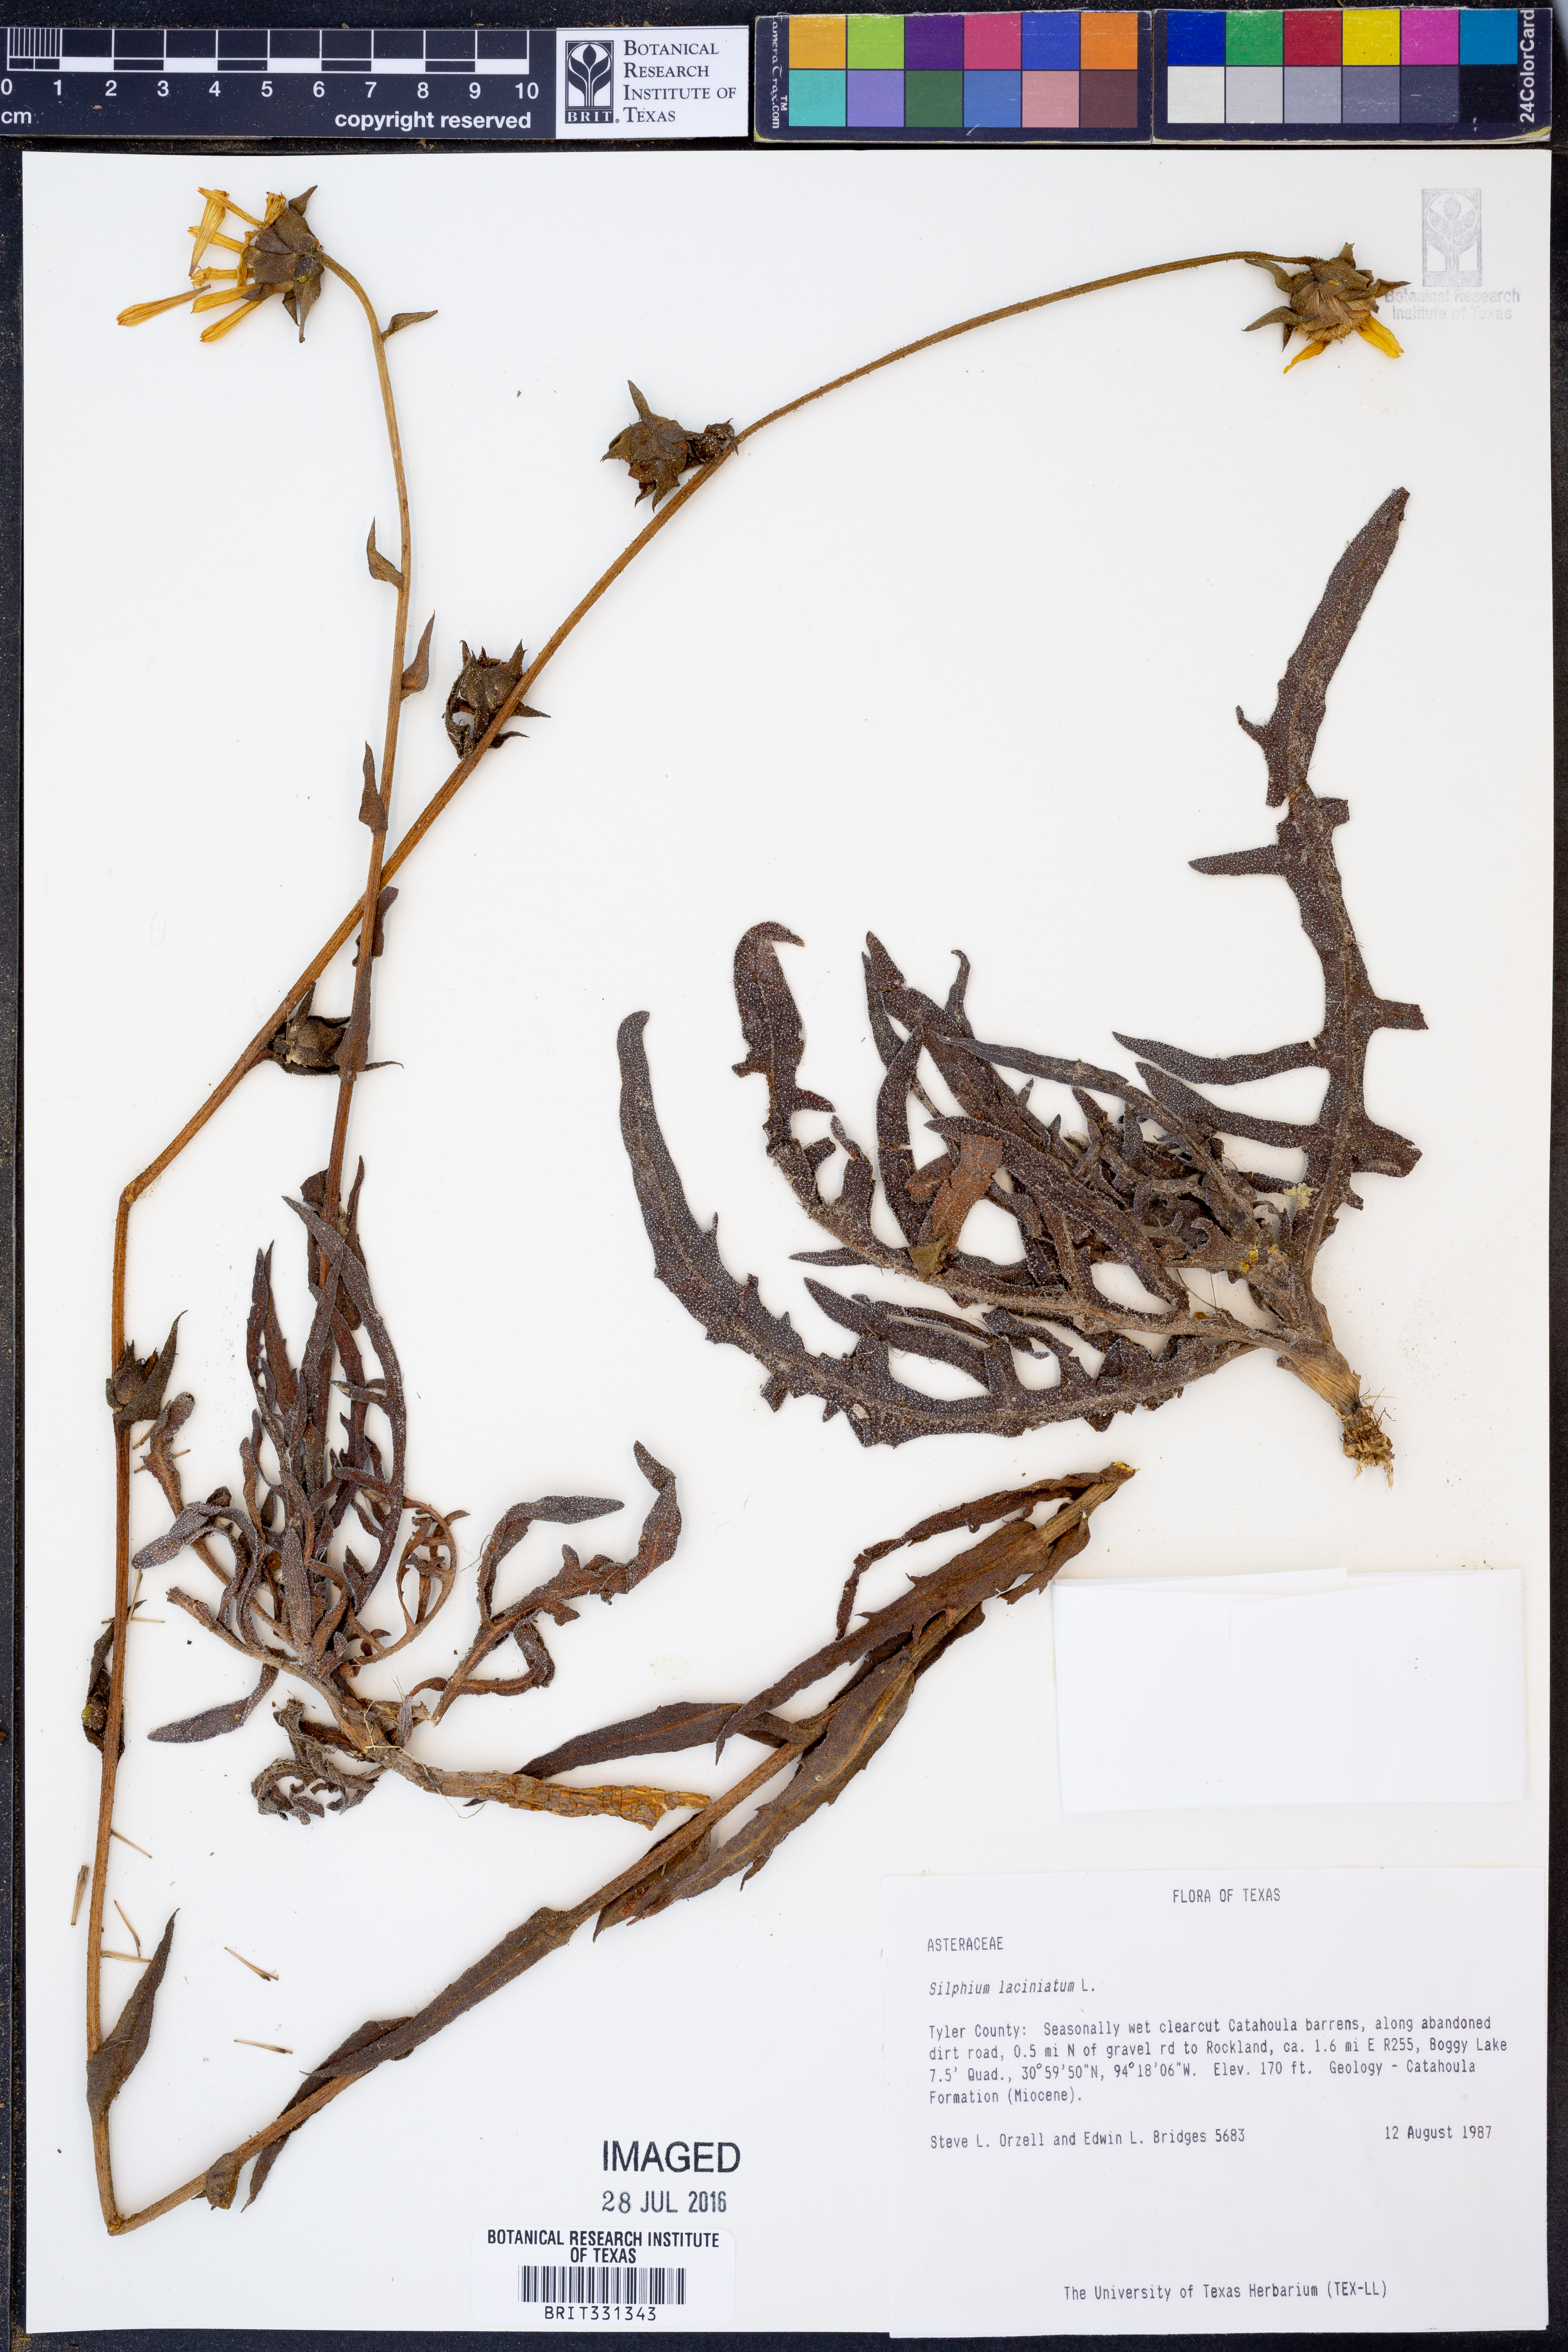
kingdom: Plantae
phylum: Tracheophyta
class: Magnoliopsida
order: Asterales
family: Asteraceae
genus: Silphium
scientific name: Silphium laciniatum
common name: Polarplant
